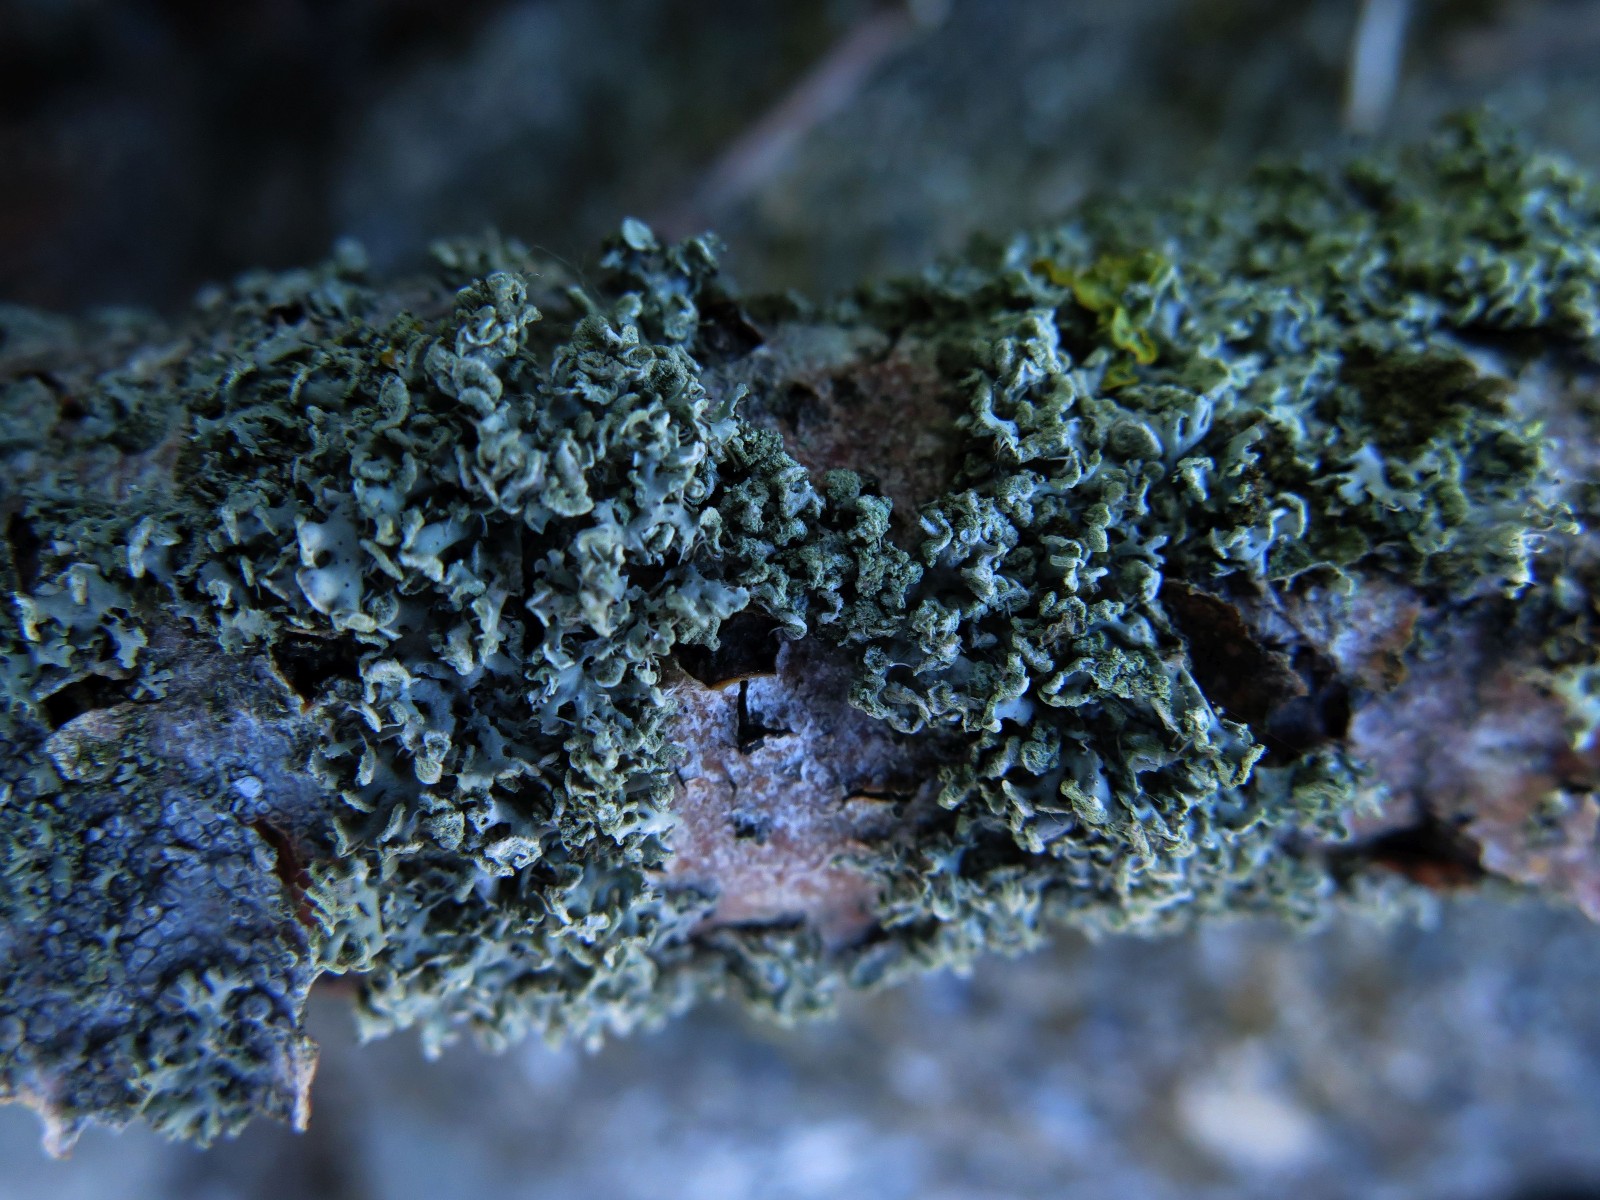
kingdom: Fungi
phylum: Ascomycota
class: Lecanoromycetes
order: Lecanorales
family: Parmeliaceae
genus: Hypogymnia
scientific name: Hypogymnia physodes
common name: almindelig kvistlav
